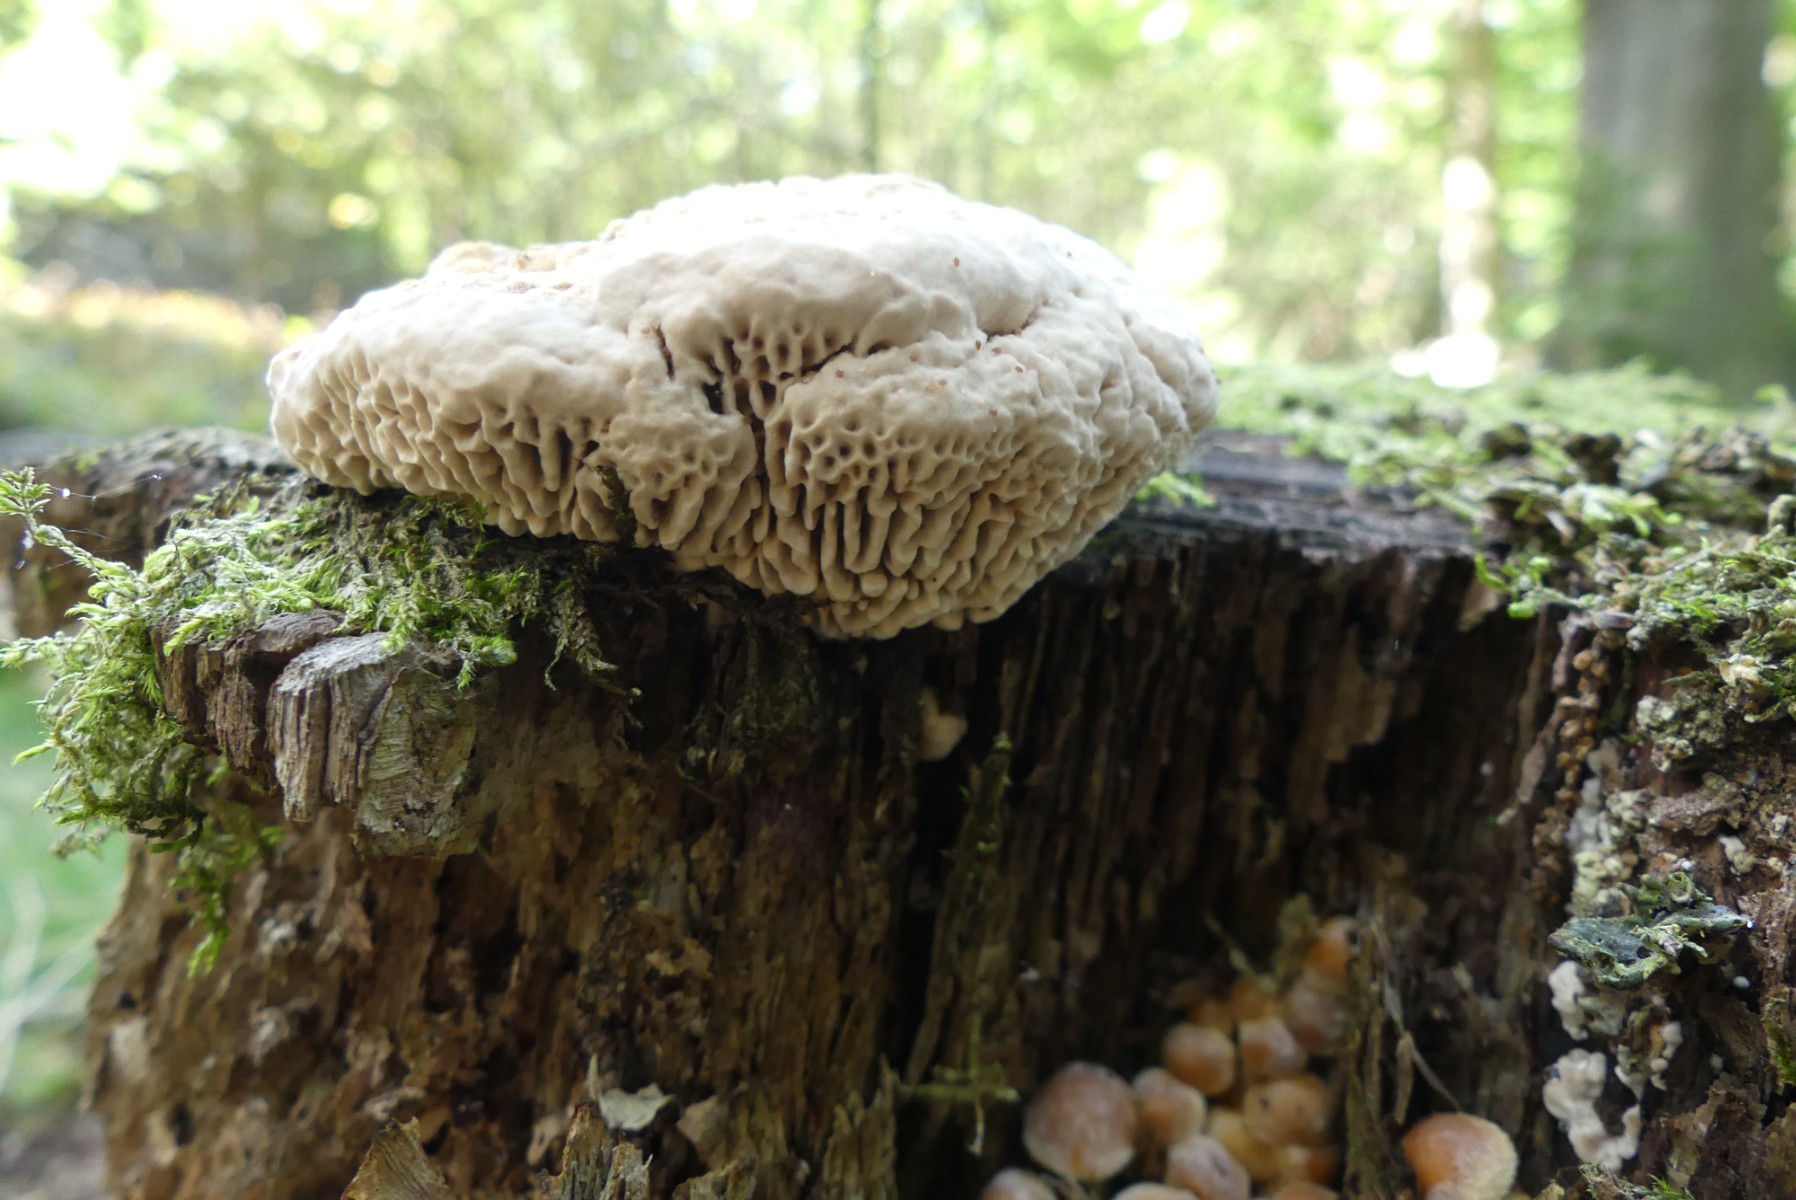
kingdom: Fungi
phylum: Basidiomycota
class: Agaricomycetes
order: Polyporales
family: Fomitopsidaceae
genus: Daedalea
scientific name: Daedalea quercina
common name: ege-labyrintsvamp
